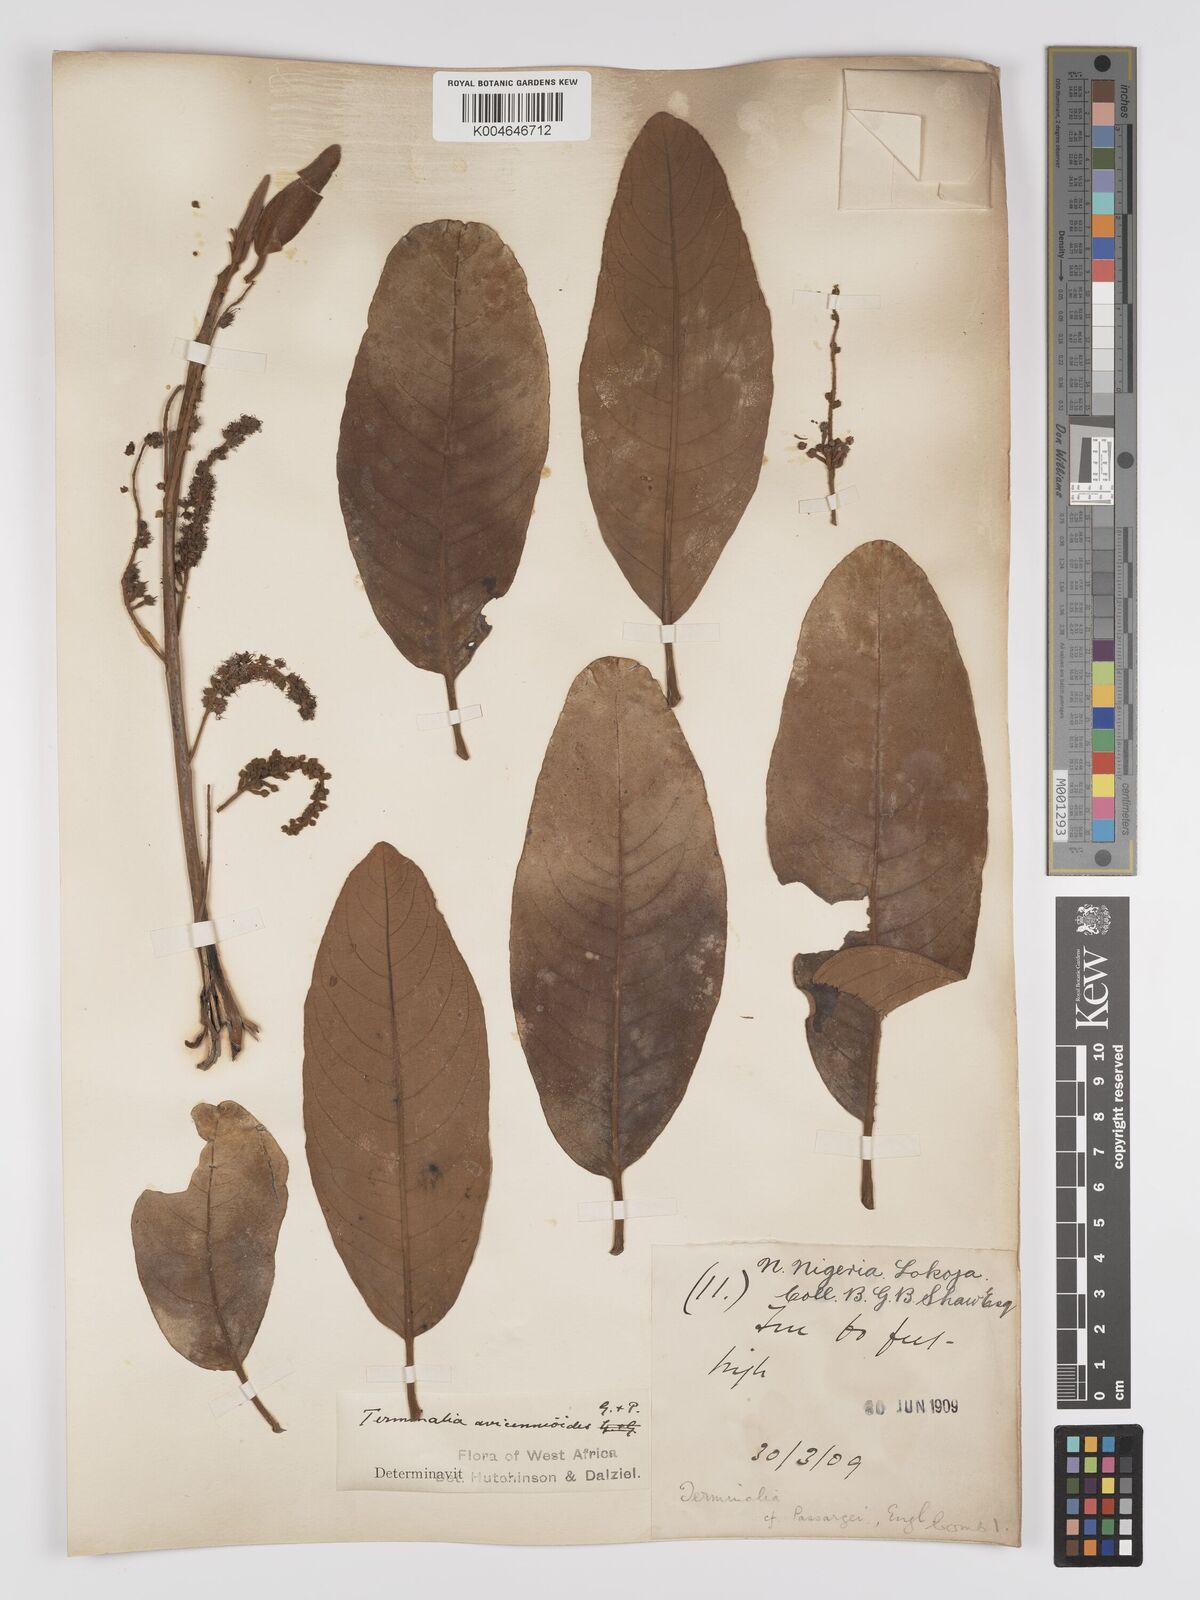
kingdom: Plantae
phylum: Tracheophyta
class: Magnoliopsida
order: Myrtales
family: Combretaceae
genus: Terminalia
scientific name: Terminalia avicennioides
